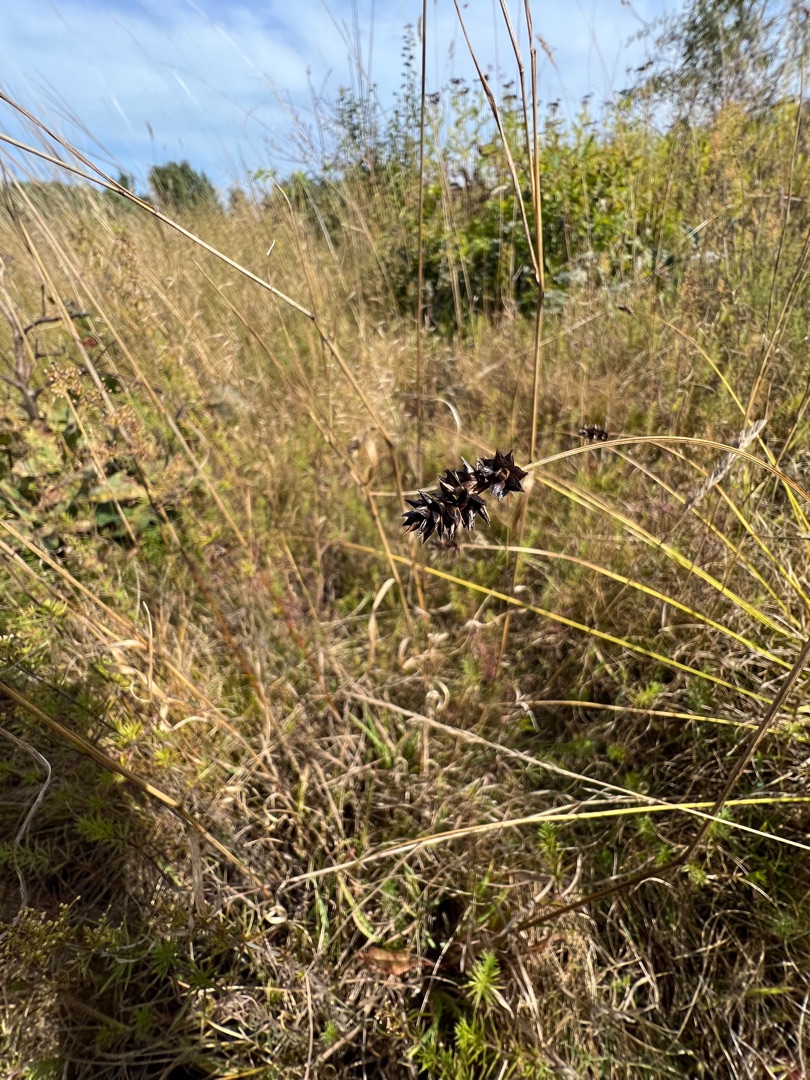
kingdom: Plantae
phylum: Tracheophyta
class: Liliopsida
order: Poales
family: Cyperaceae
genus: Carex
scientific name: Carex pairae
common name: Pigget star
